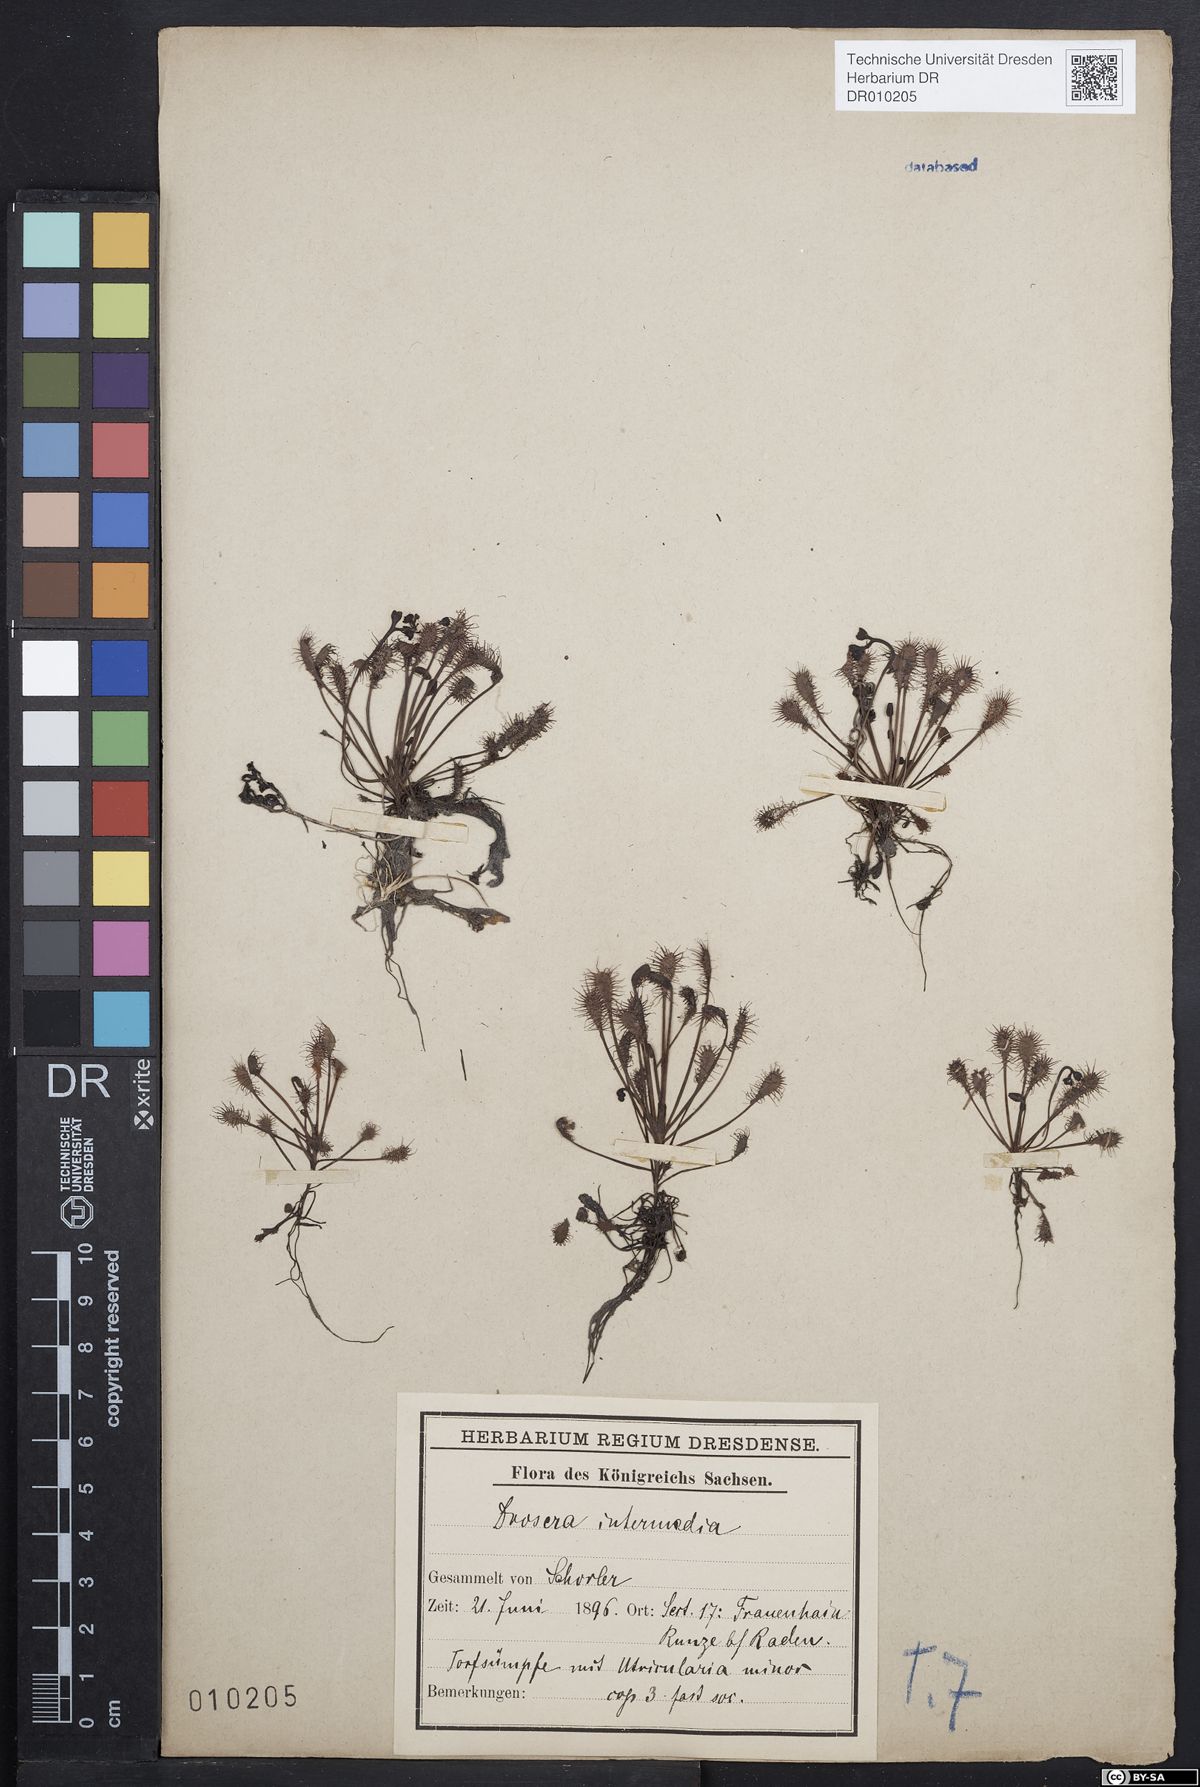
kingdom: Plantae
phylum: Tracheophyta
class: Magnoliopsida
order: Caryophyllales
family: Droseraceae
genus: Drosera
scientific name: Drosera intermedia
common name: Oblong-leaved sundew
